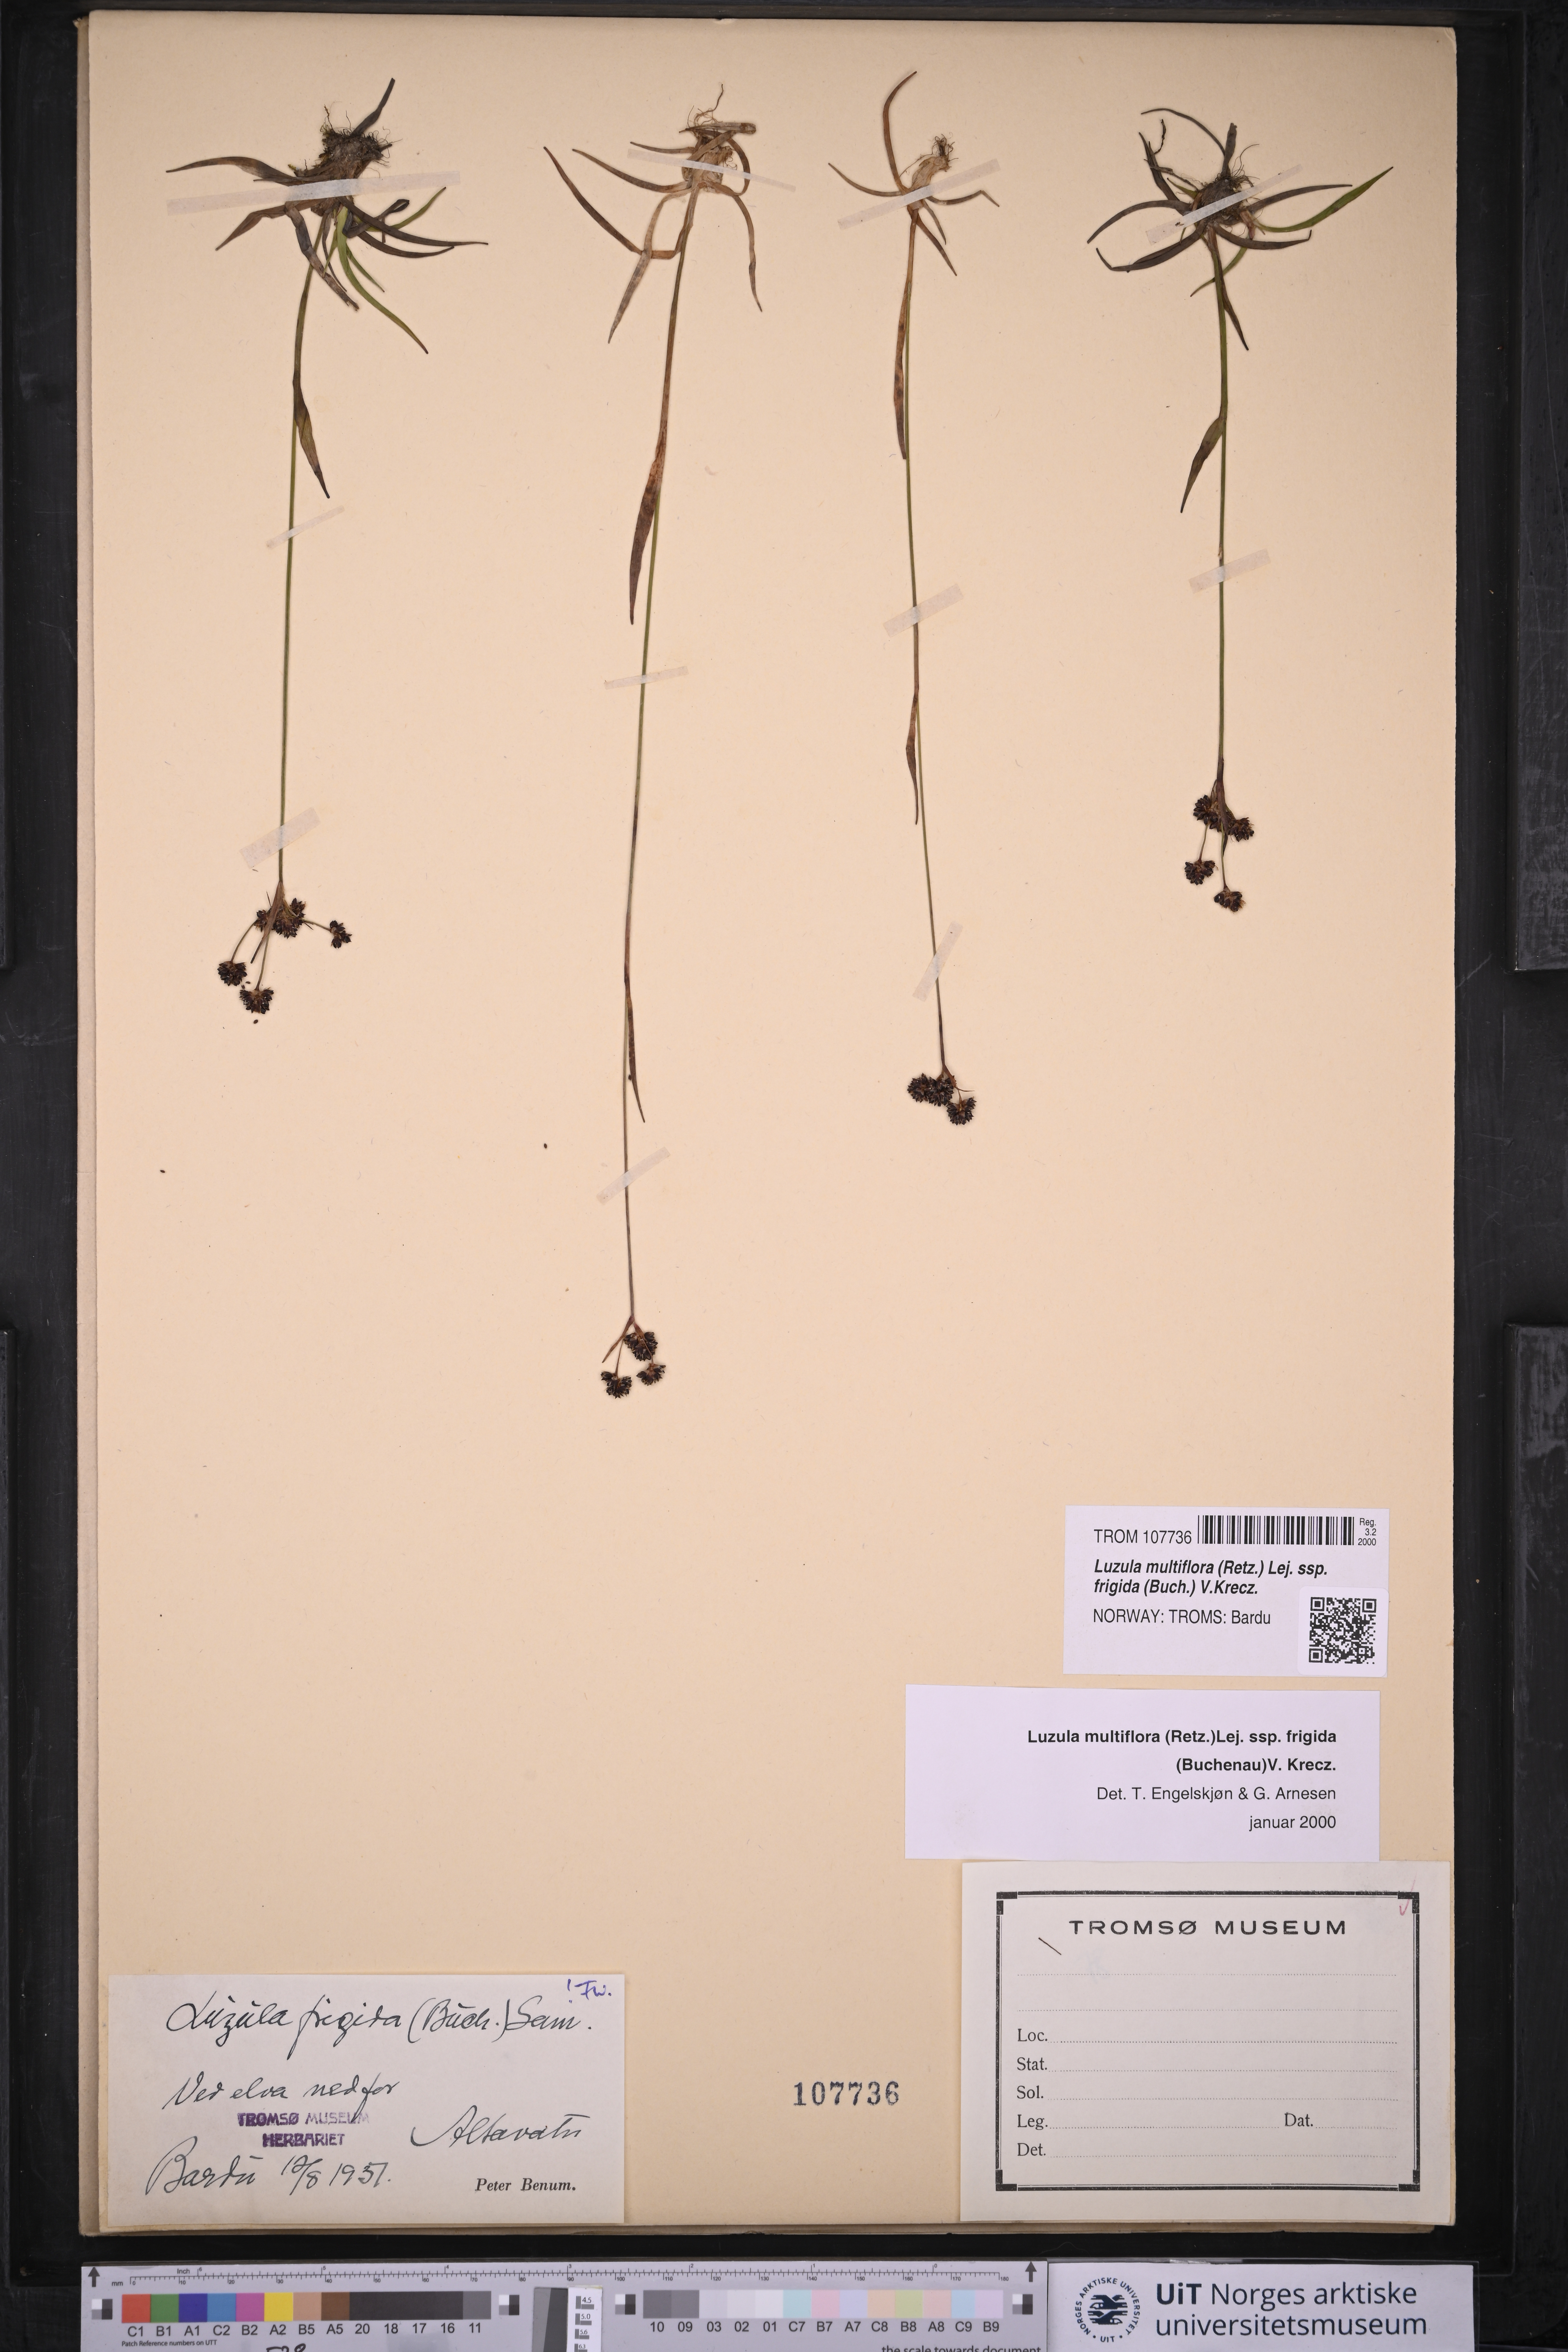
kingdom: Plantae
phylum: Tracheophyta
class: Liliopsida
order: Poales
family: Juncaceae
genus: Luzula
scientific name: Luzula multiflora
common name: Heath wood-rush
